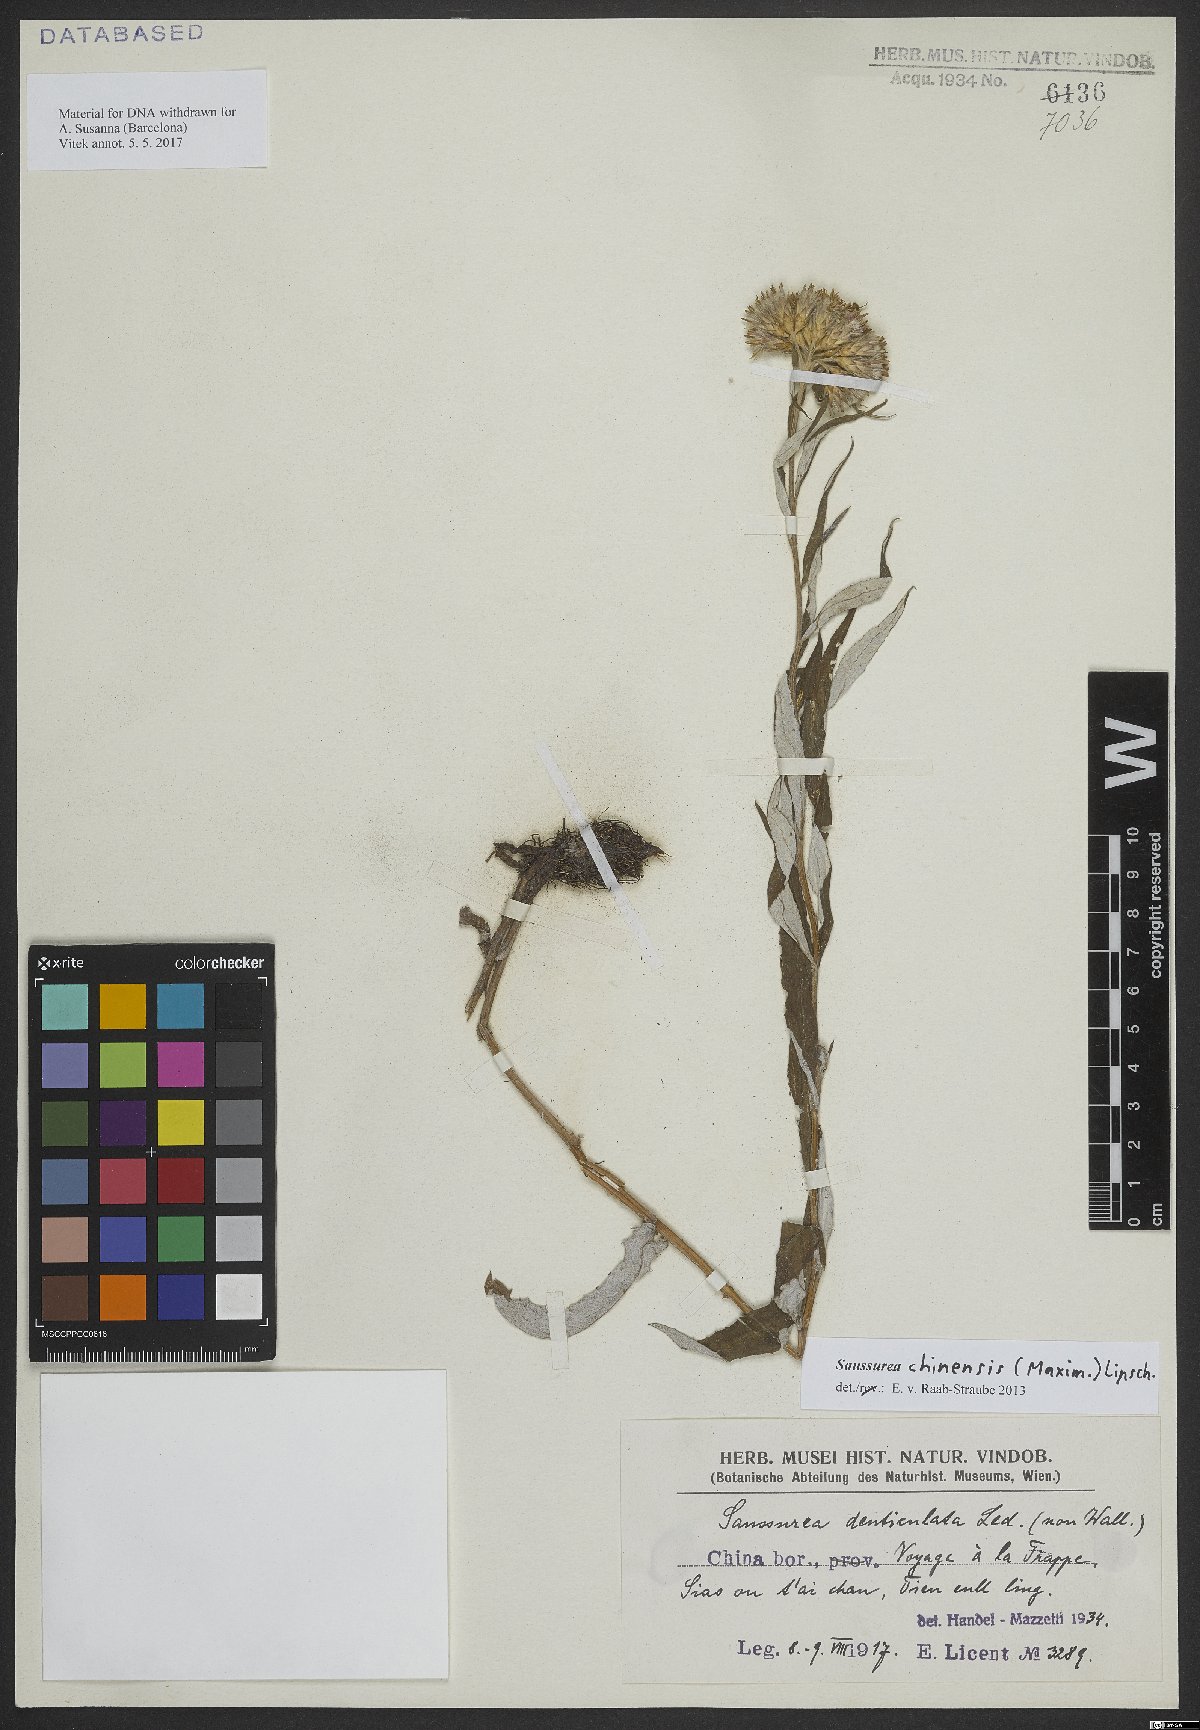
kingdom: Plantae
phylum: Tracheophyta
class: Magnoliopsida
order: Asterales
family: Asteraceae
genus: Saussurea
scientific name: Saussurea chinensis
